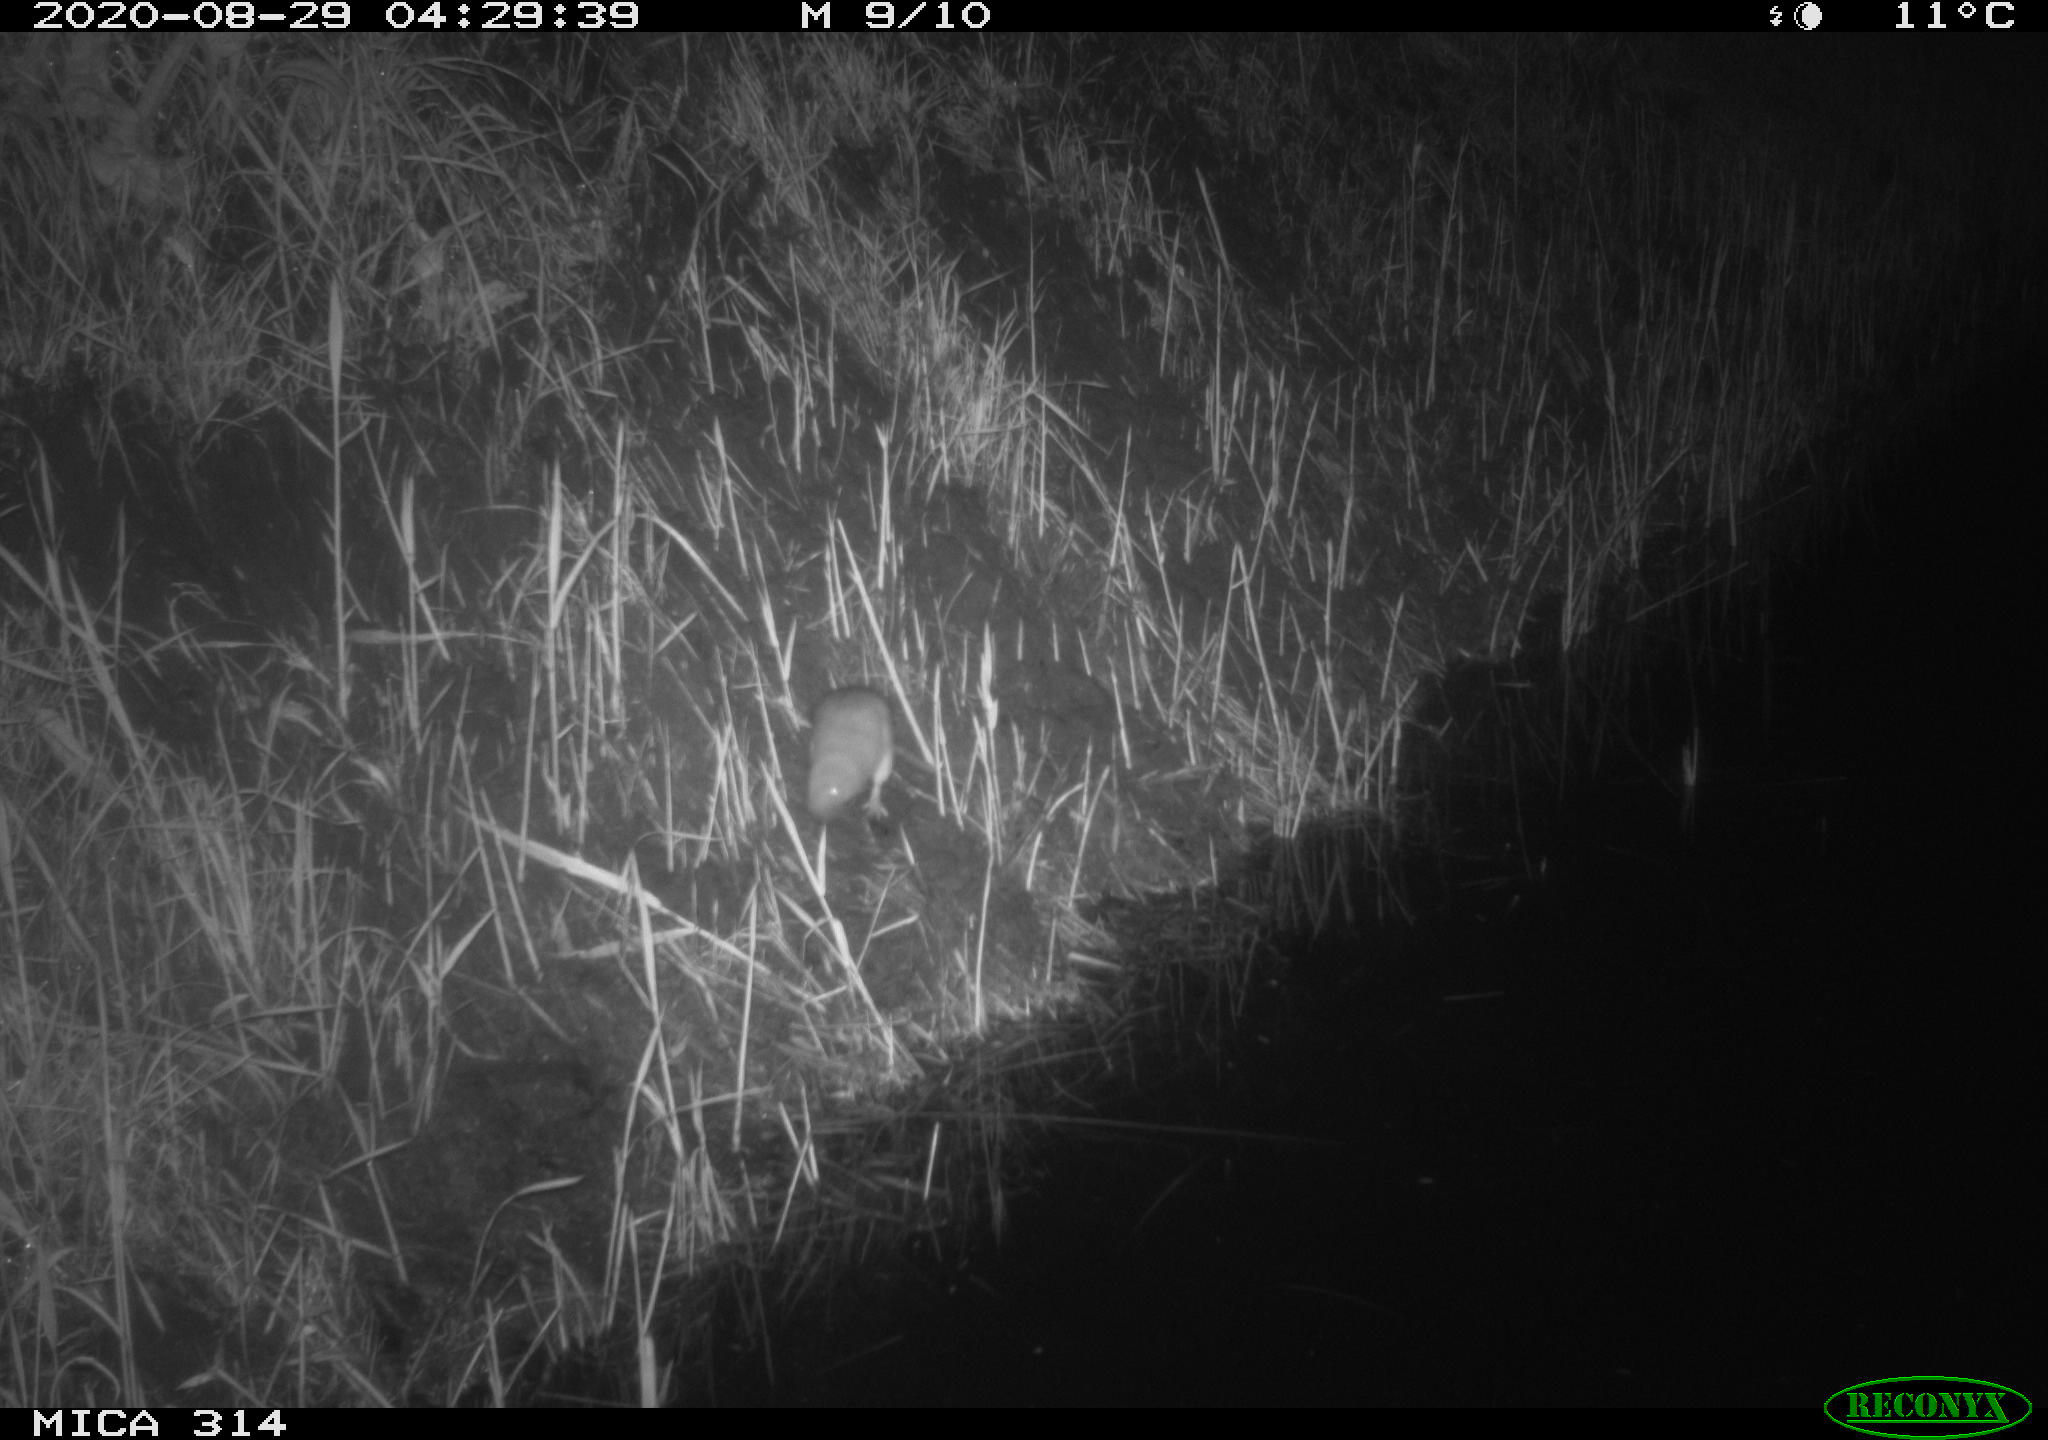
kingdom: Animalia
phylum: Chordata
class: Mammalia
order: Rodentia
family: Muridae
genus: Rattus
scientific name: Rattus norvegicus
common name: Brown rat
